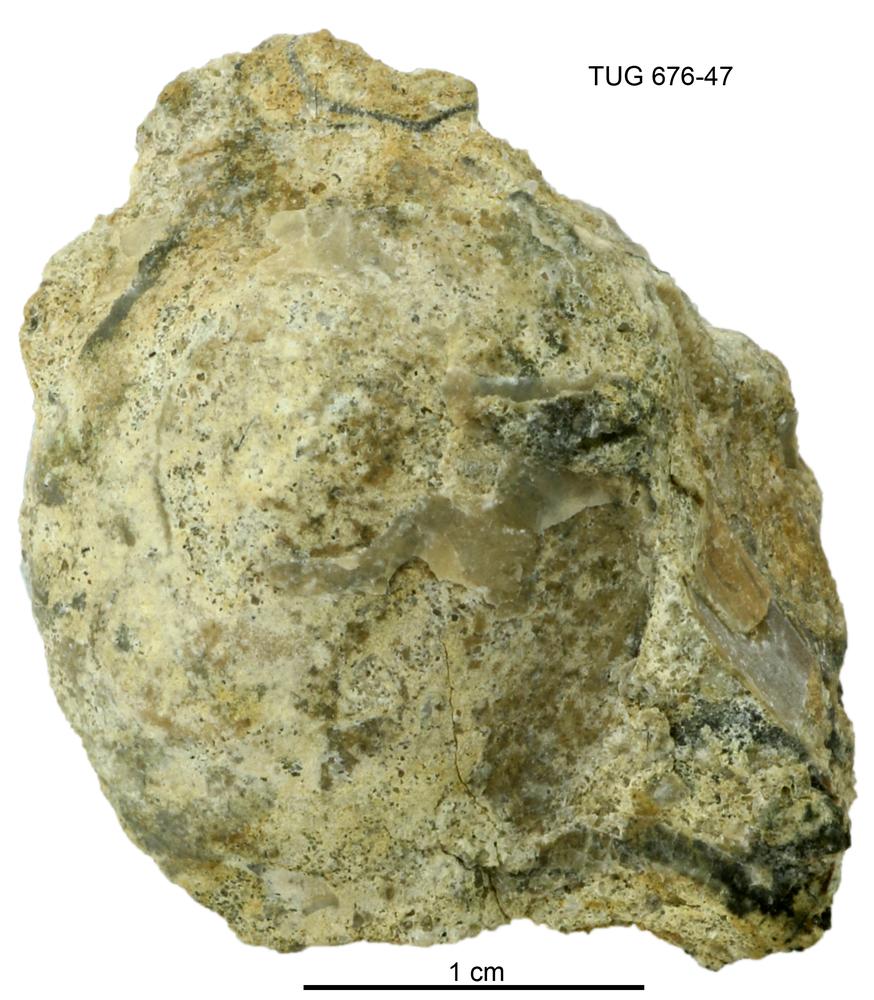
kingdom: Animalia
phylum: Mollusca
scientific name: Mollusca
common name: Mollusca
